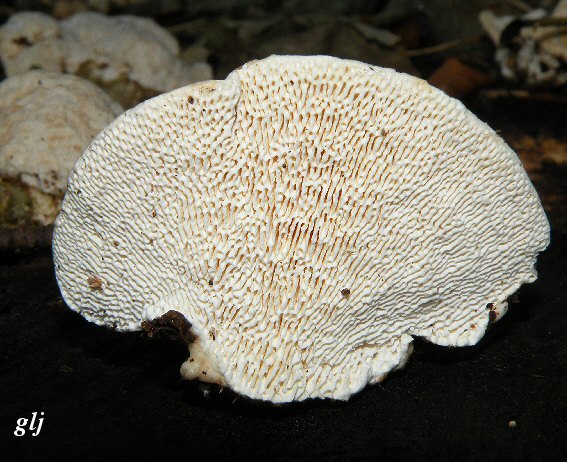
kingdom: Fungi
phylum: Basidiomycota
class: Agaricomycetes
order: Polyporales
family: Polyporaceae
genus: Trametes
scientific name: Trametes gibbosa
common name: puklet læderporesvamp
